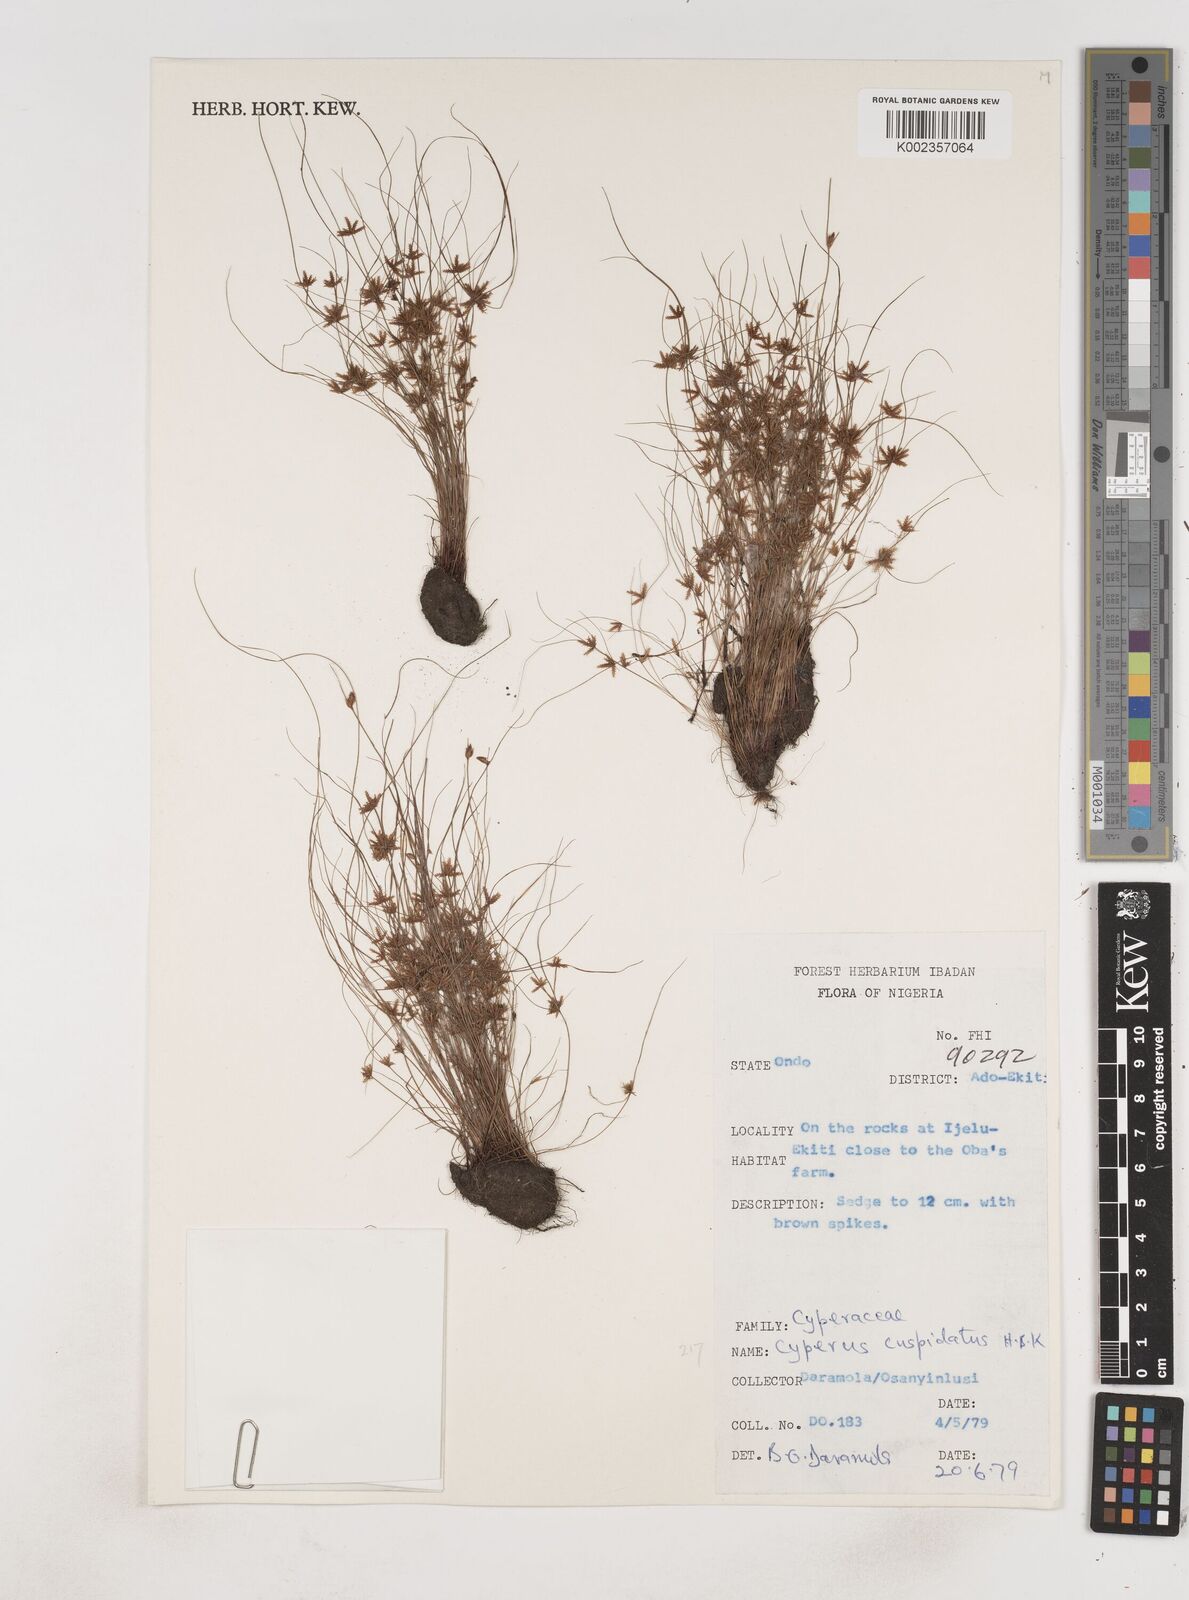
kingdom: Plantae
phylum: Tracheophyta
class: Liliopsida
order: Poales
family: Cyperaceae
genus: Cyperus
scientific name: Cyperus
